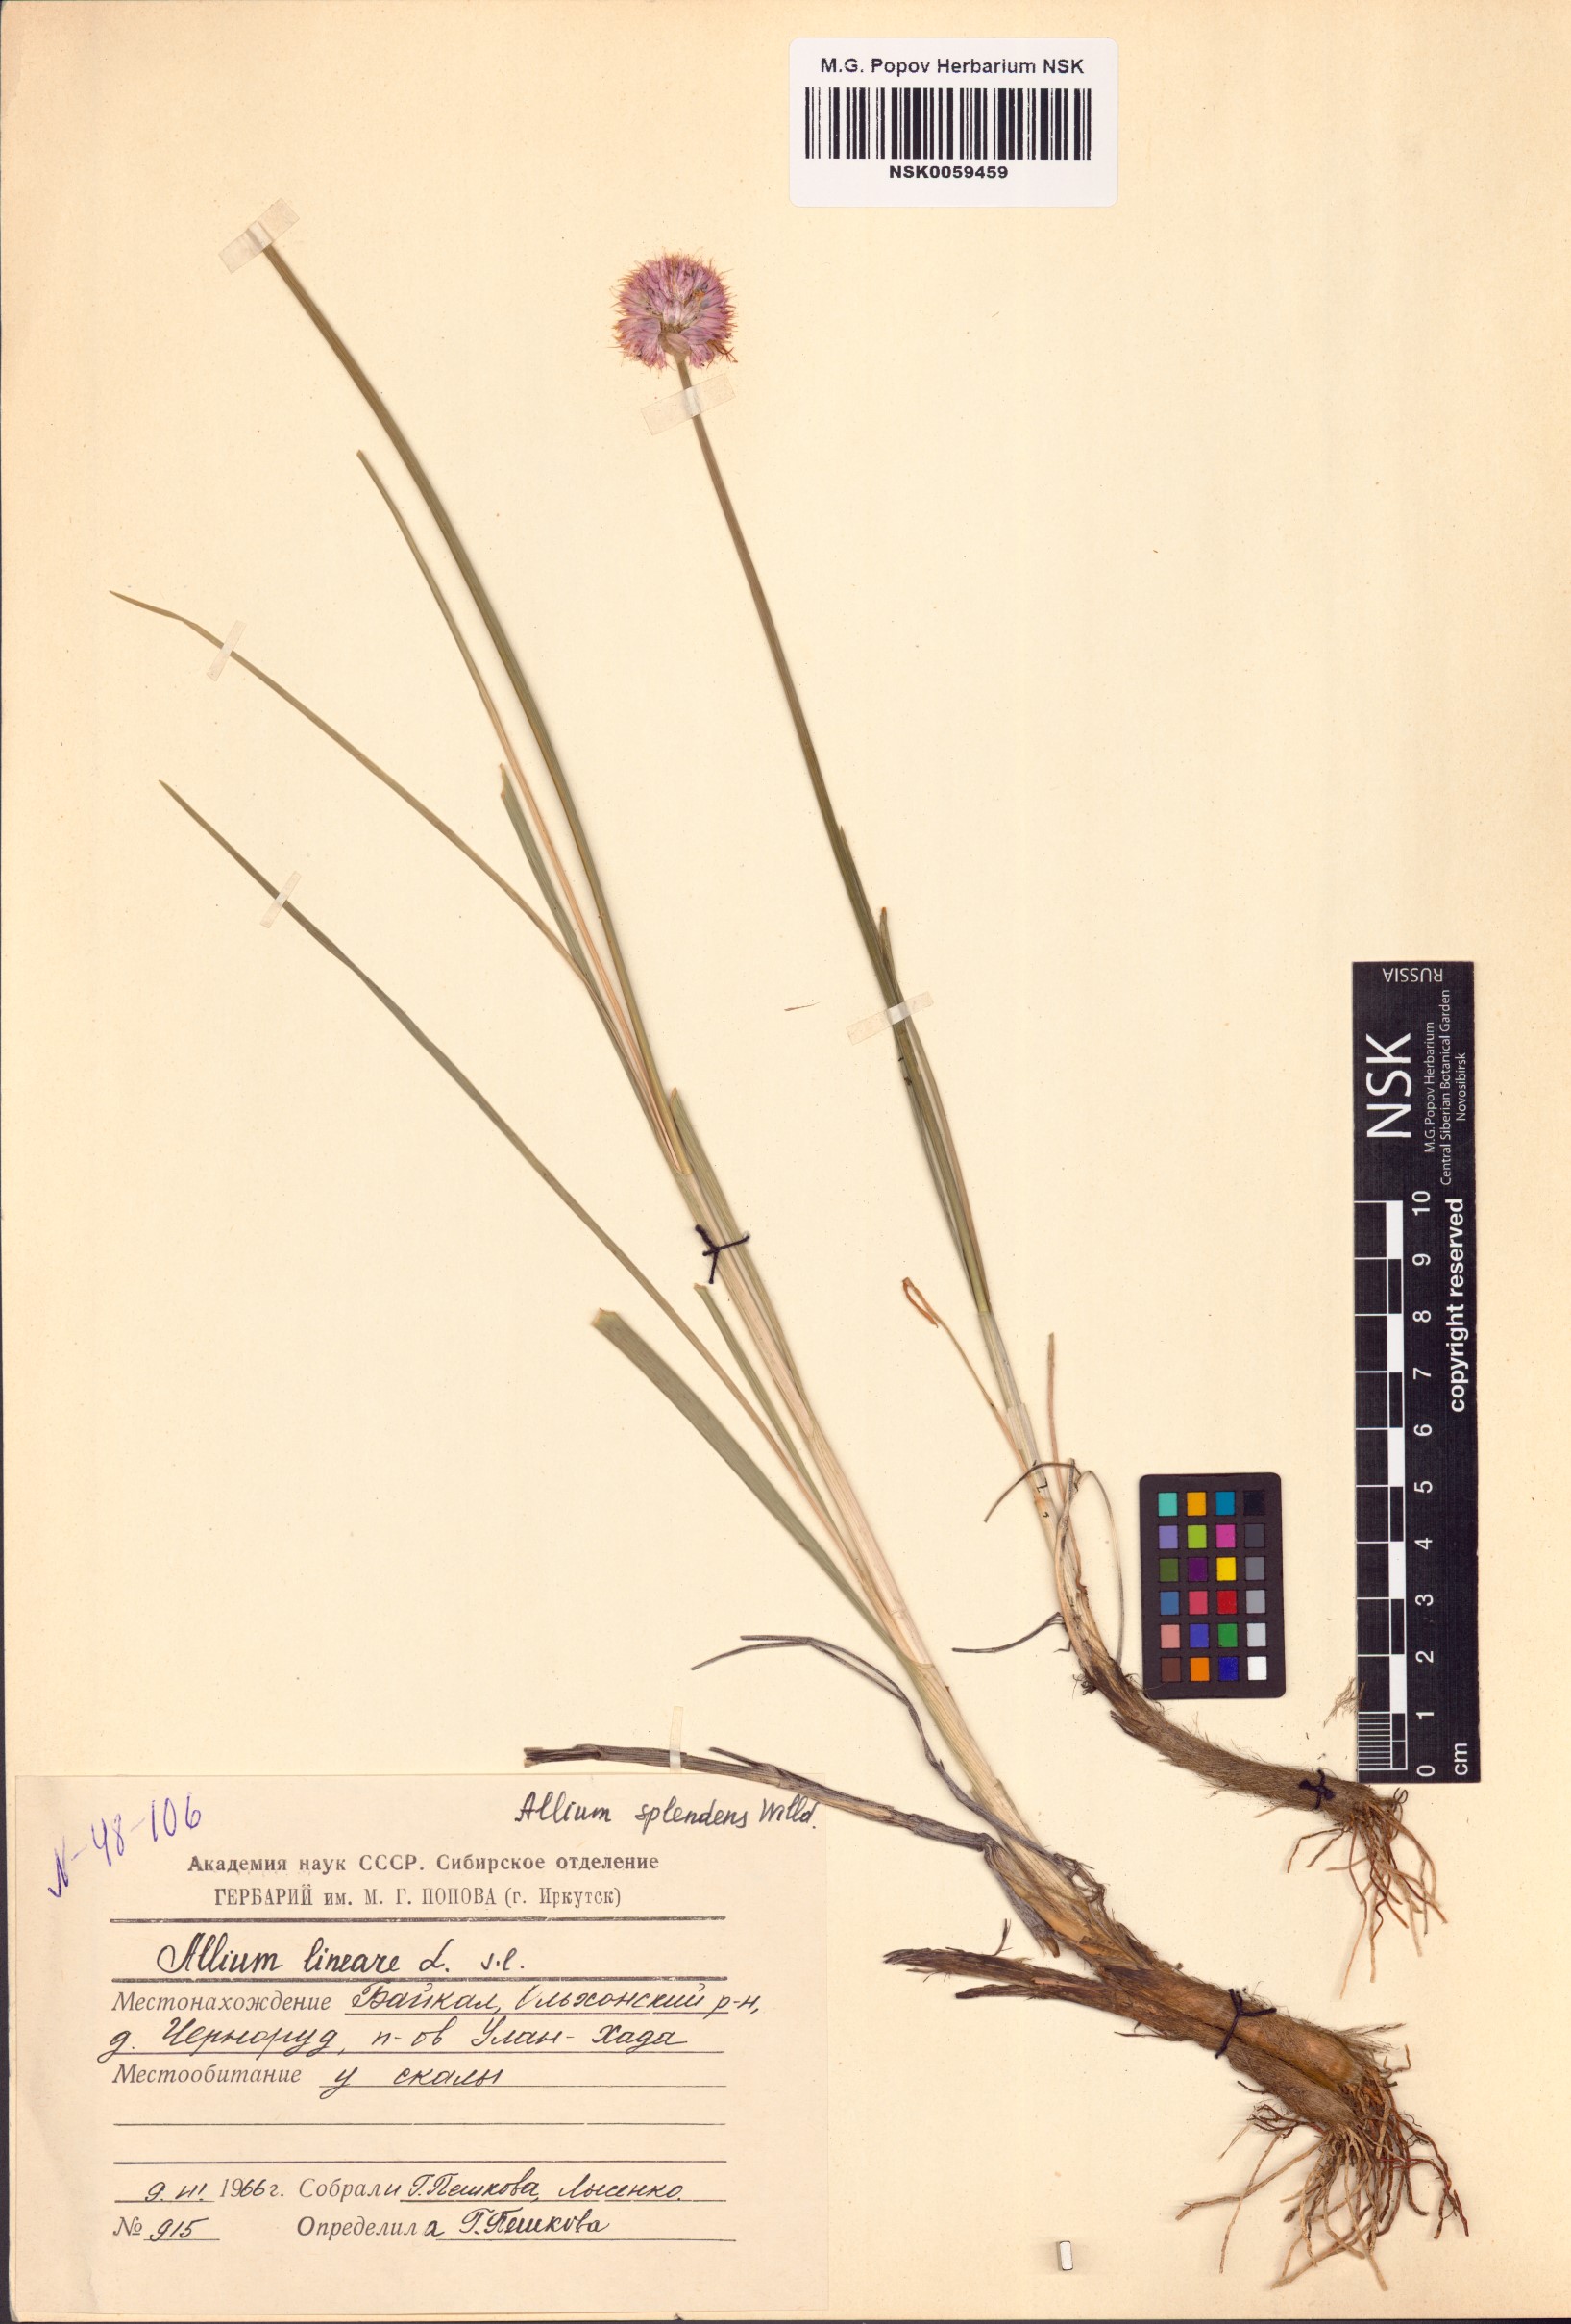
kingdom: Plantae
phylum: Tracheophyta
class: Liliopsida
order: Asparagales
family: Amaryllidaceae
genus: Allium
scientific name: Allium splendens
